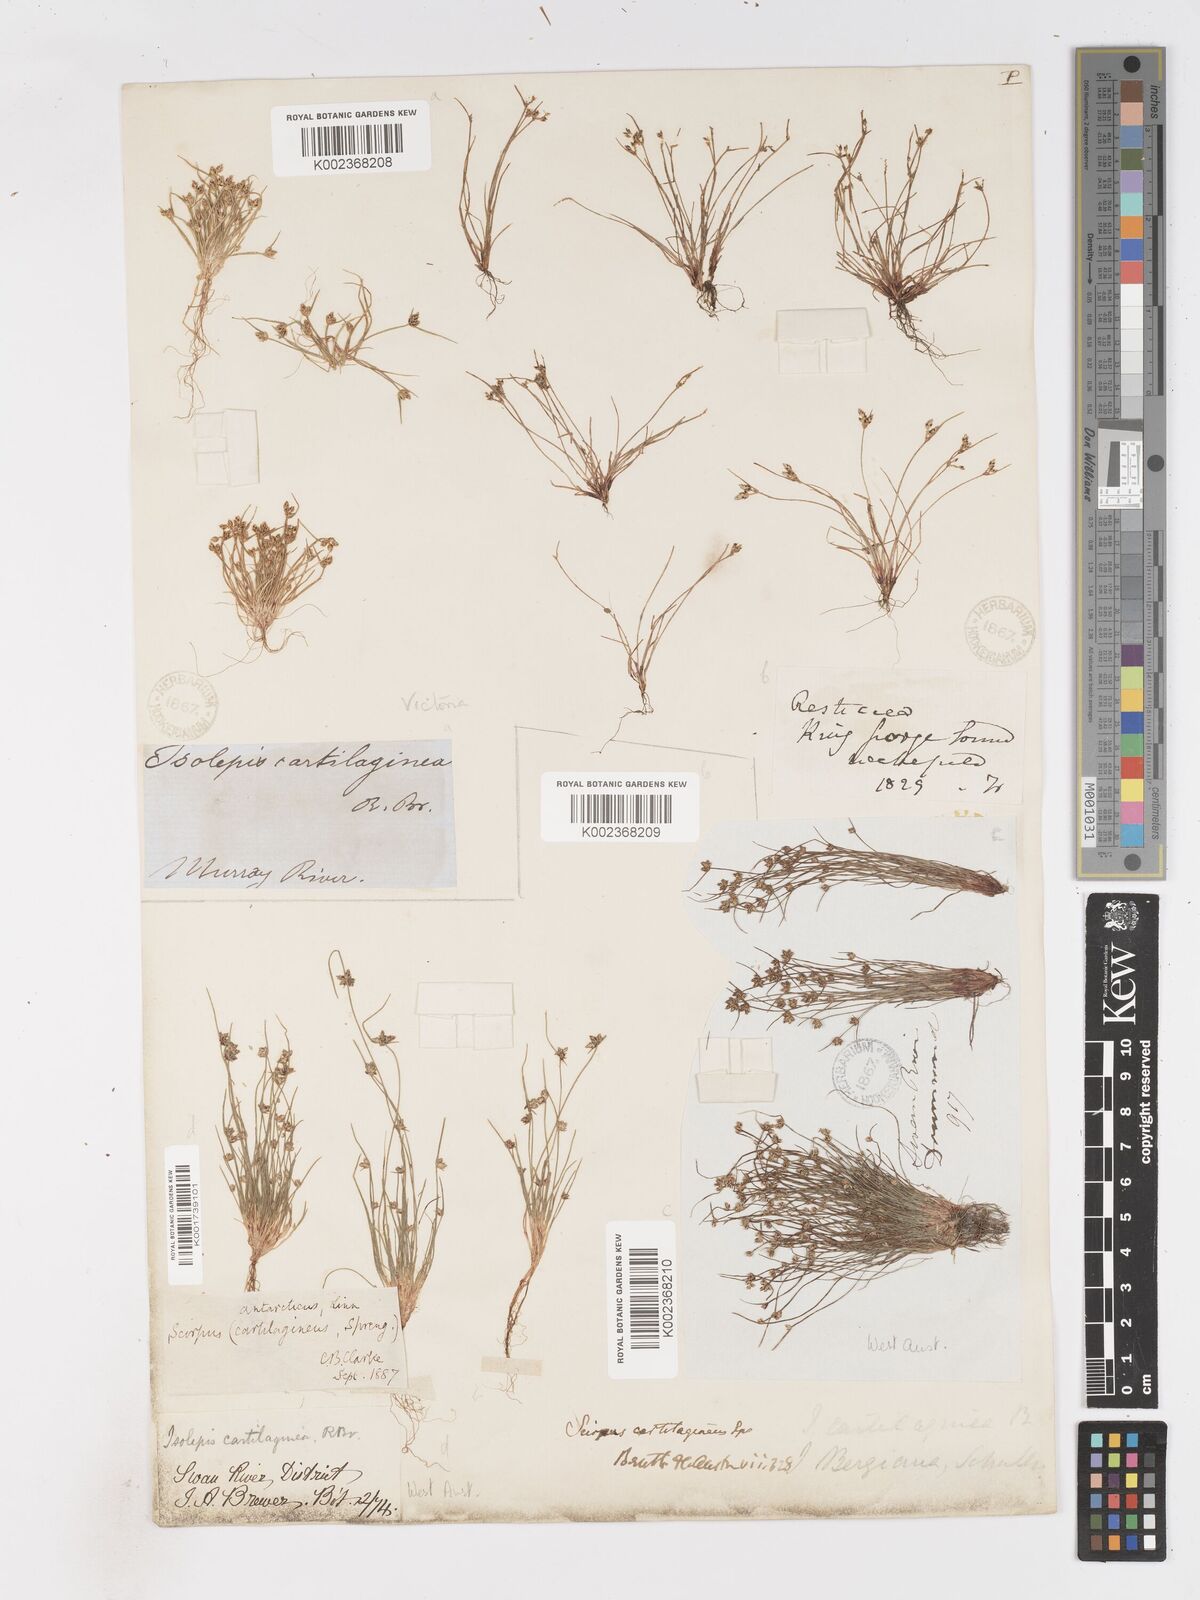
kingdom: Plantae
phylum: Tracheophyta
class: Liliopsida
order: Poales
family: Cyperaceae
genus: Isolepis
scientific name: Isolepis marginata
